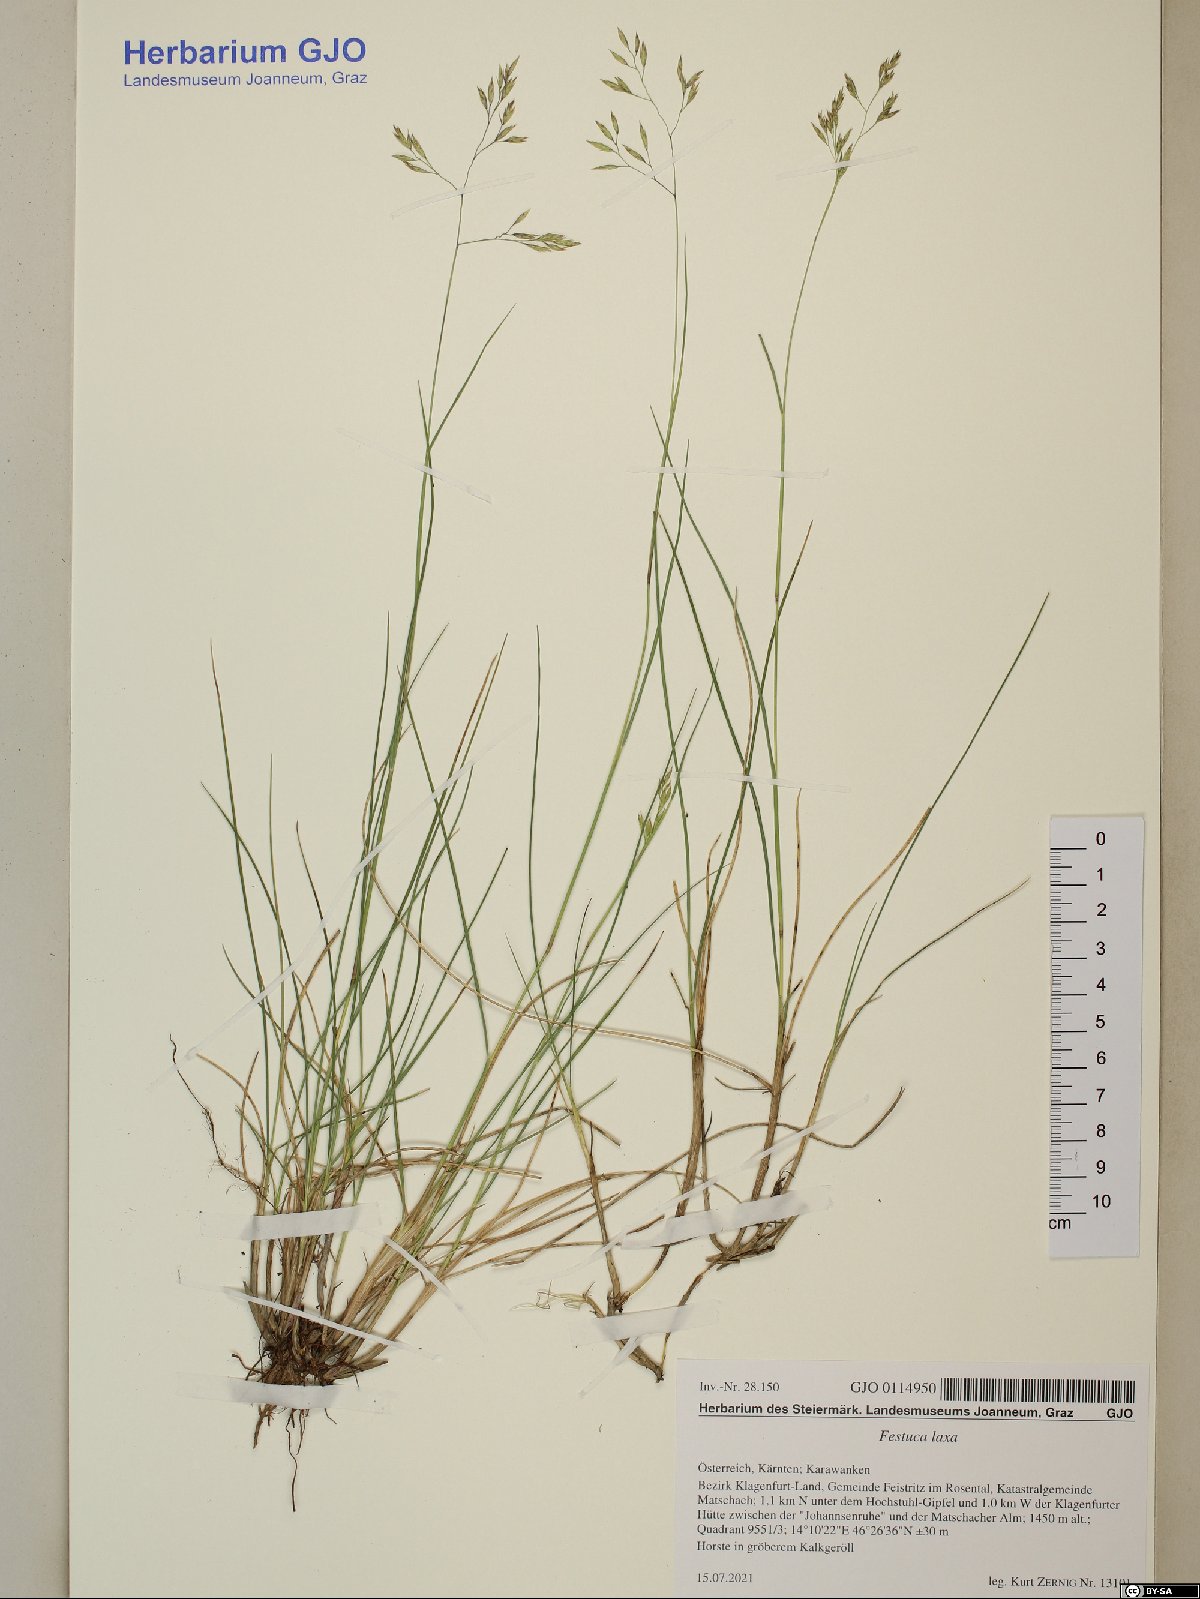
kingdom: Plantae
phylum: Tracheophyta
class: Liliopsida
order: Poales
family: Poaceae
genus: Festuca
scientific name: Festuca laxa
